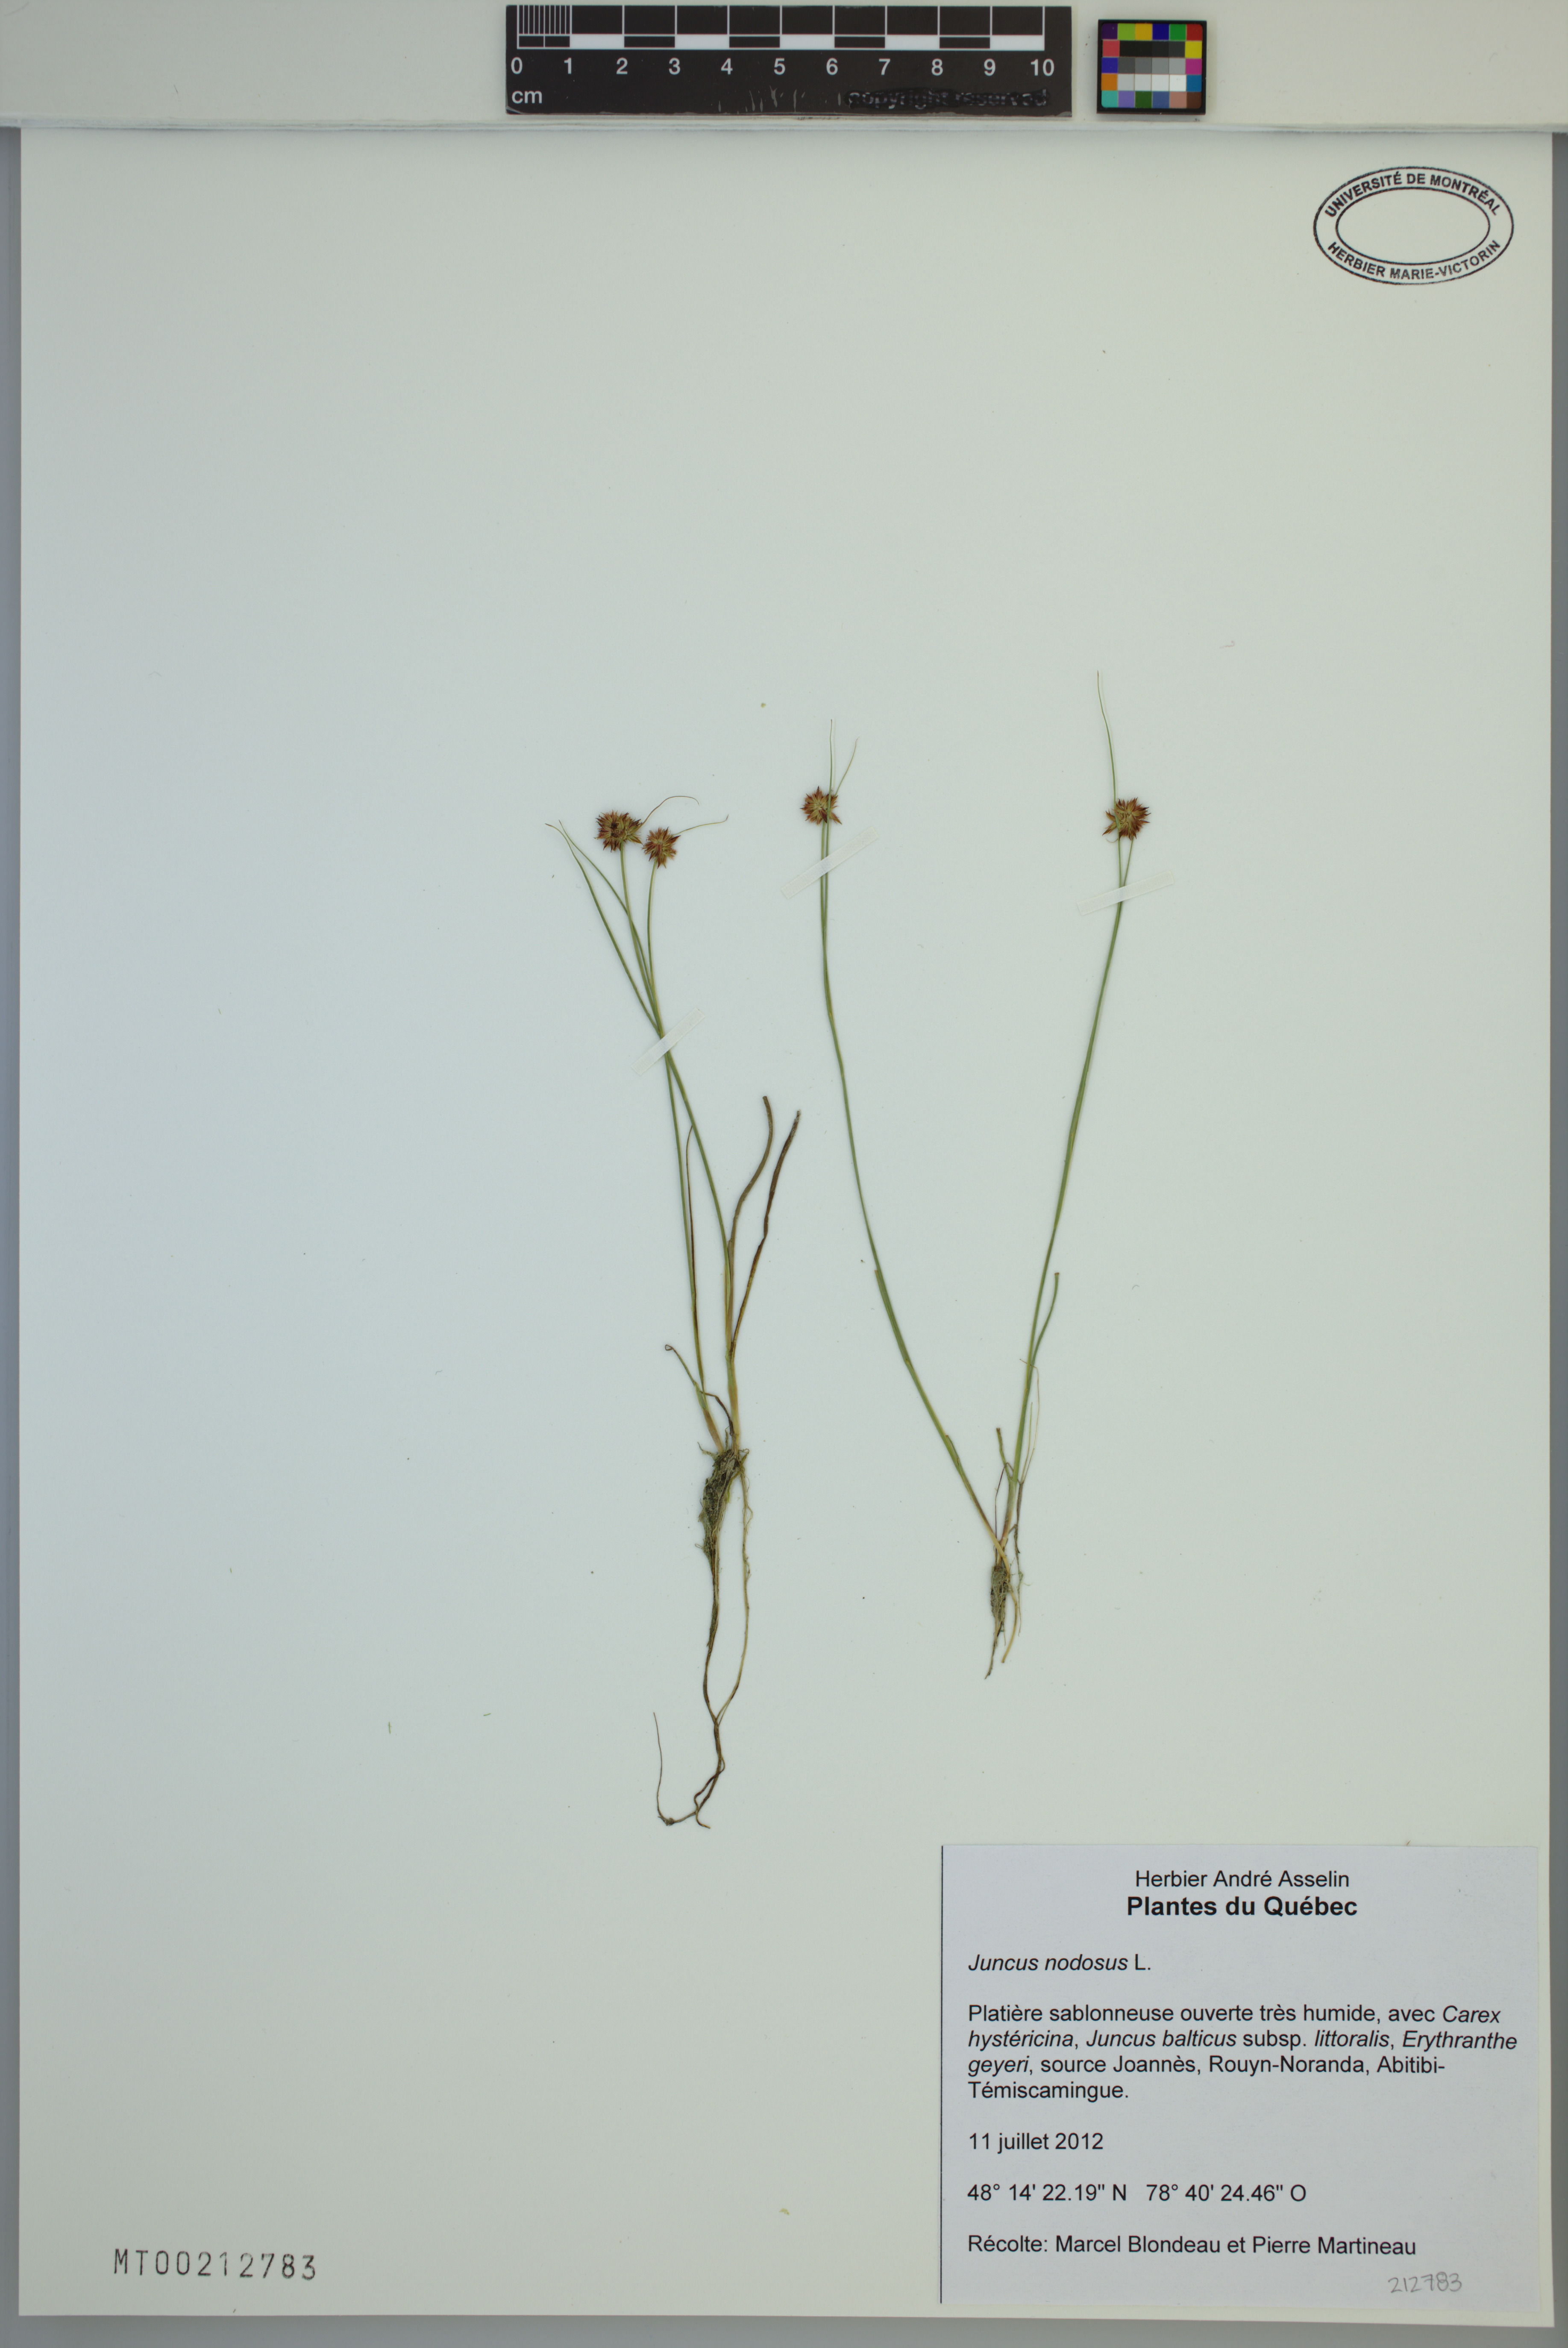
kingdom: Plantae
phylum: Tracheophyta
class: Liliopsida
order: Poales
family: Juncaceae
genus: Juncus
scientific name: Juncus nodosus
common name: Knotted rush
